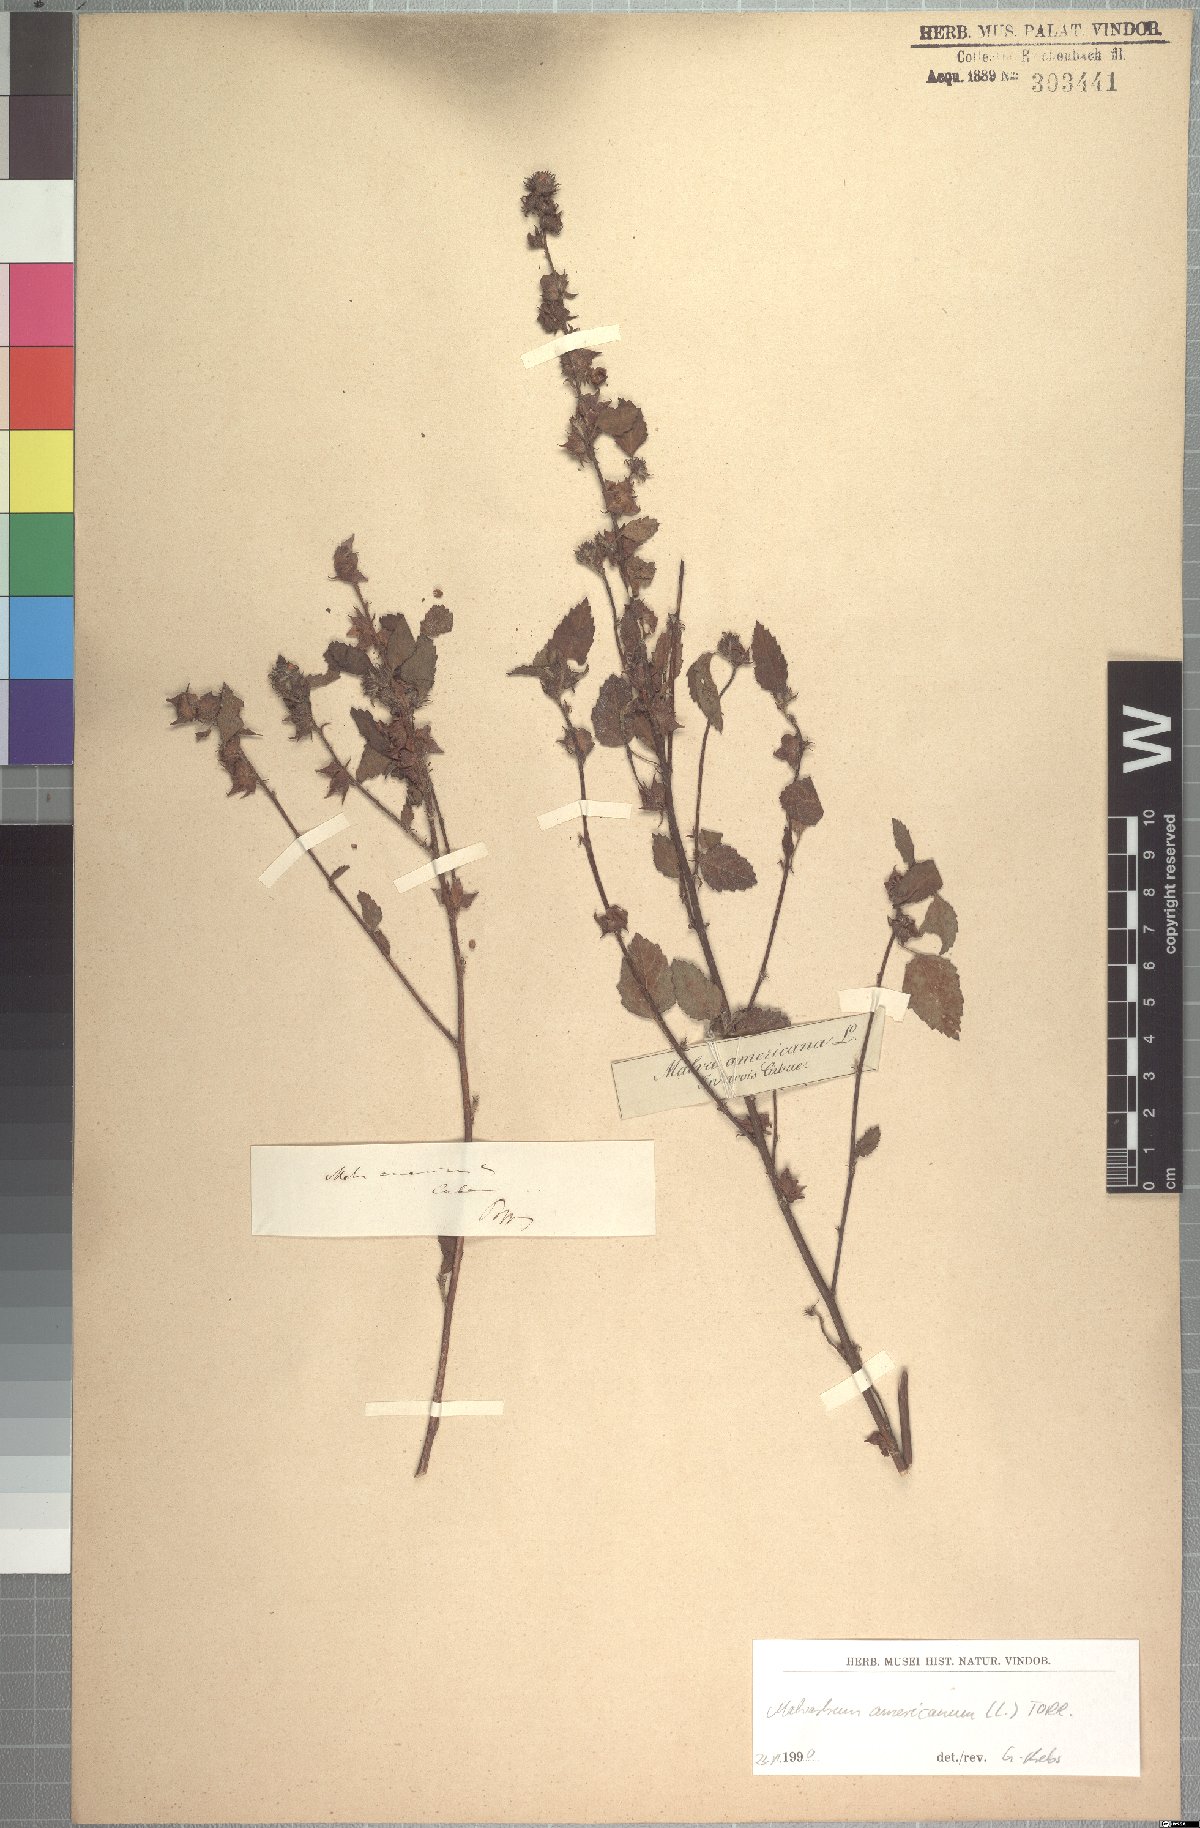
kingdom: Plantae
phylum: Tracheophyta
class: Magnoliopsida
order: Malvales
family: Malvaceae
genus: Malvastrum
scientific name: Malvastrum americanum
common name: Spiked malvastrum
